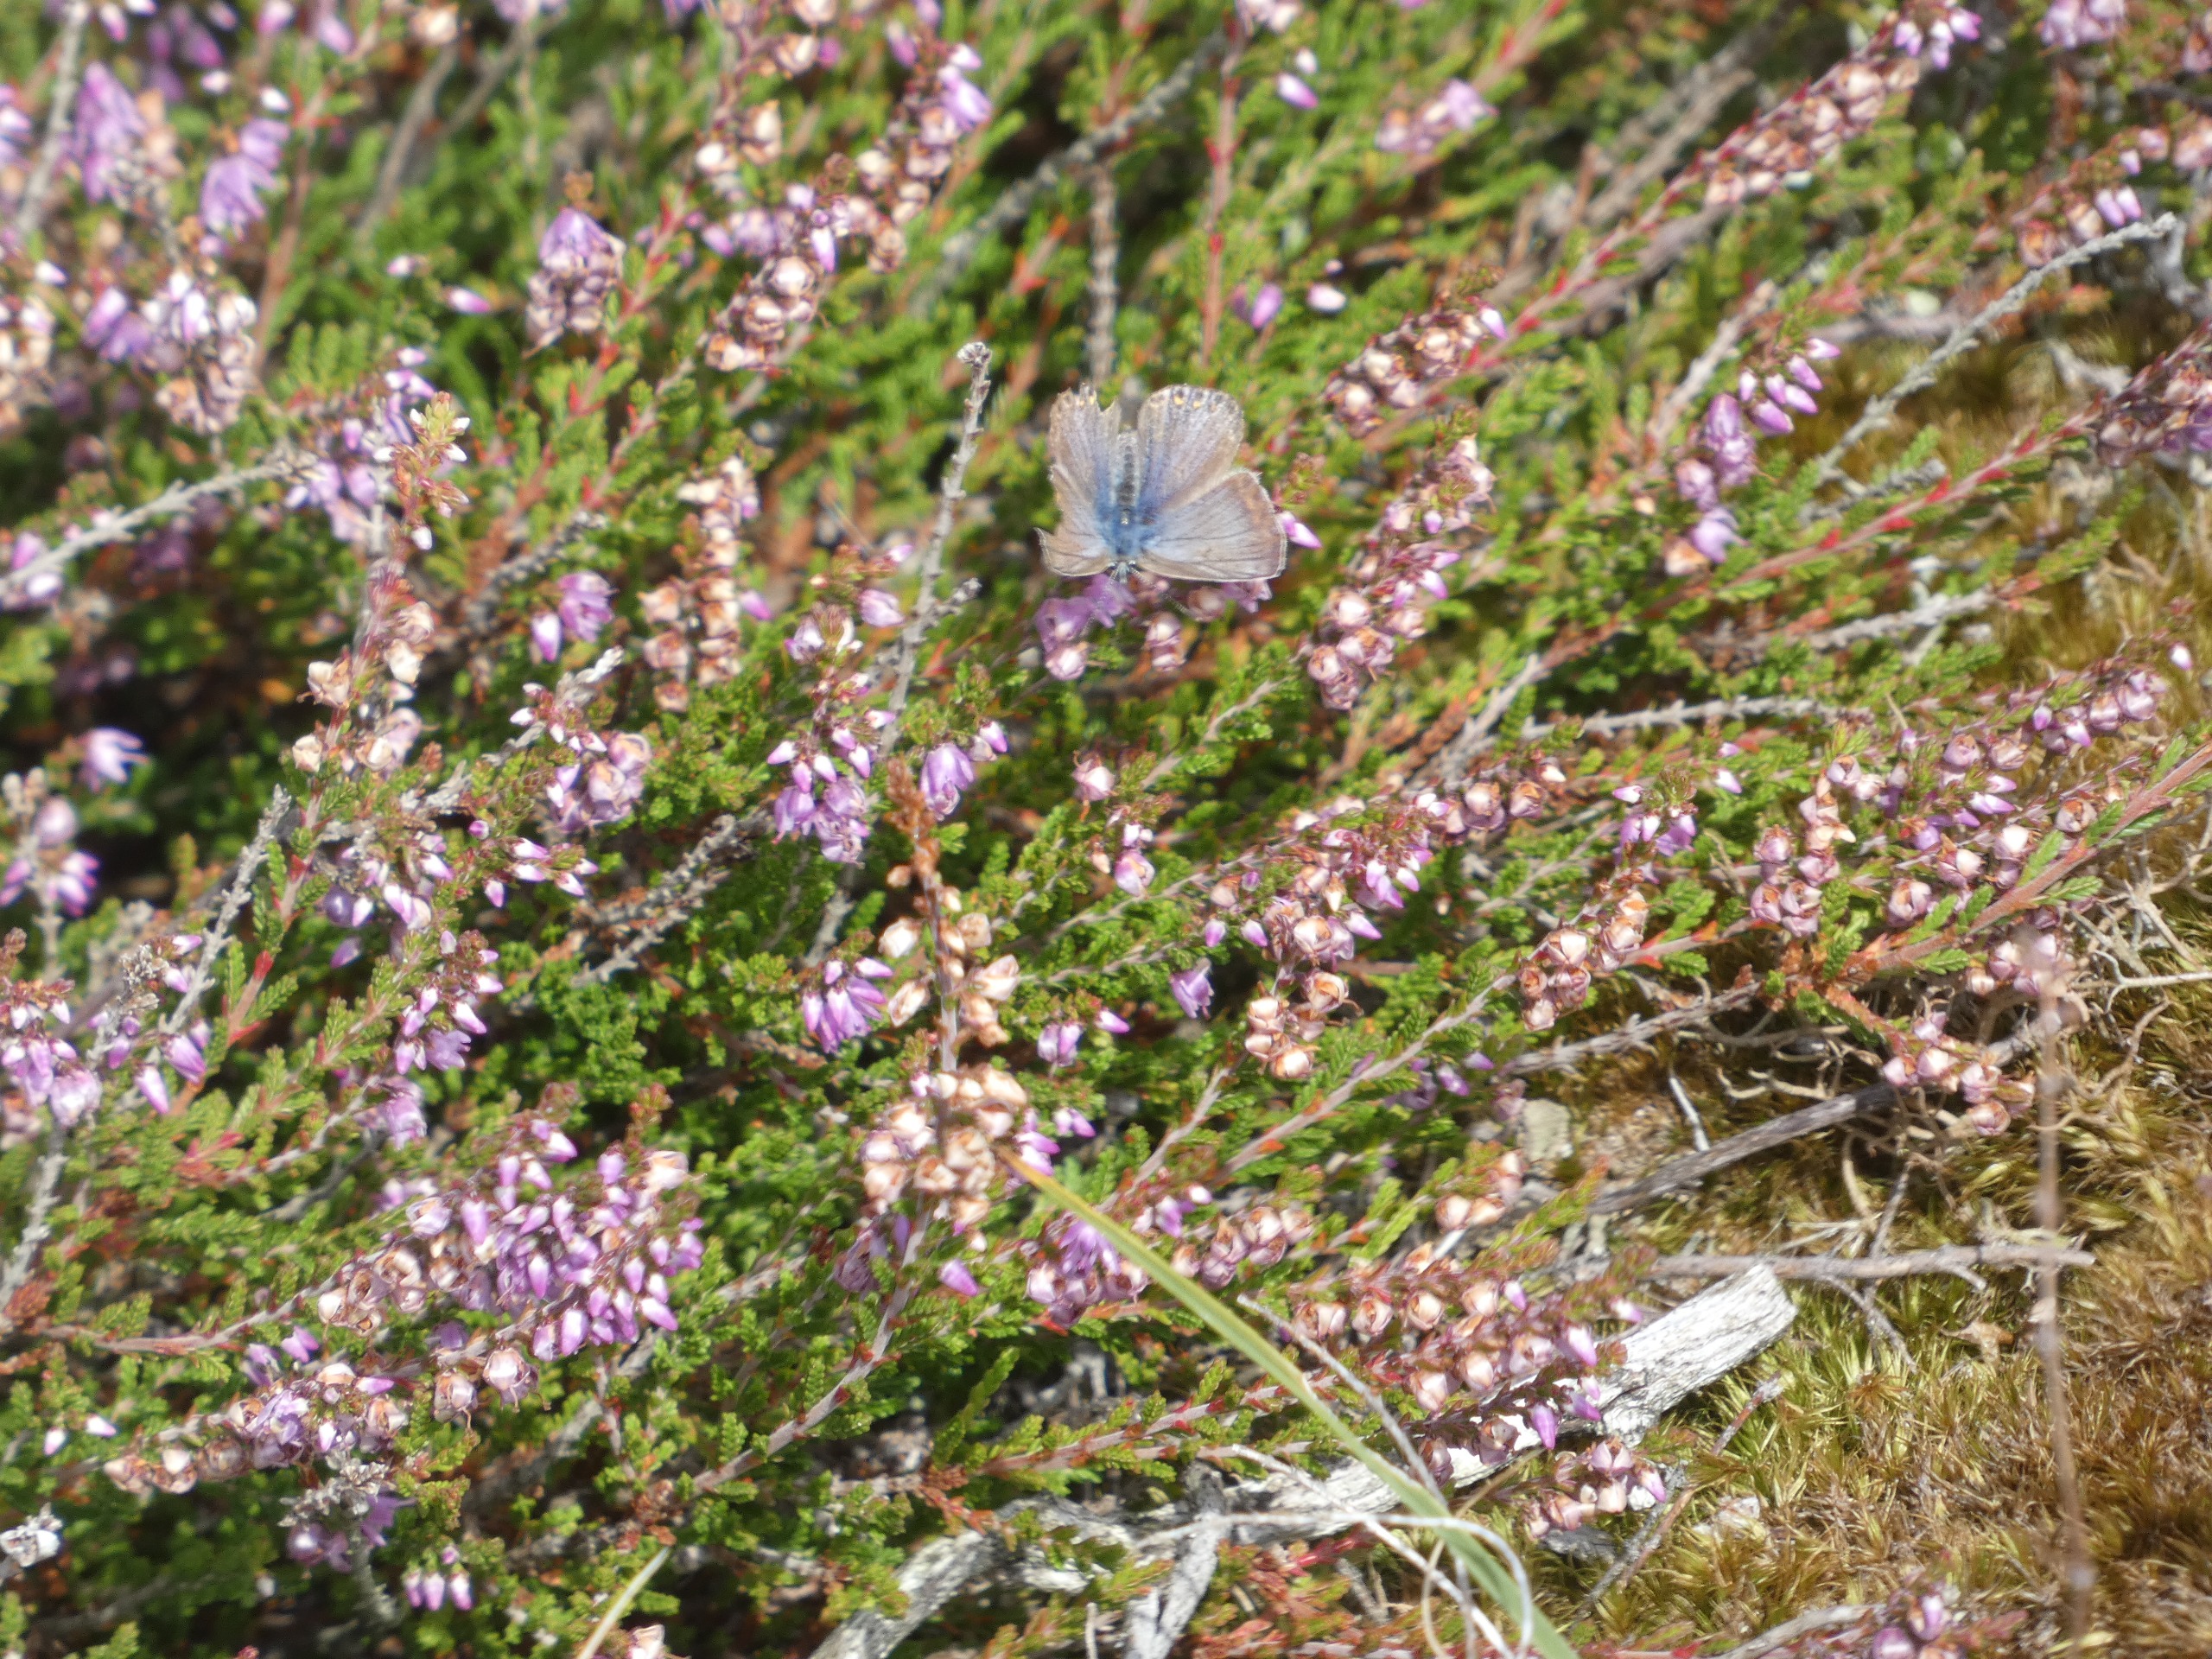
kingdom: Animalia
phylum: Arthropoda
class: Insecta
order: Lepidoptera
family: Lycaenidae
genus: Polyommatus
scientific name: Polyommatus icarus
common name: Almindelig blåfugl
